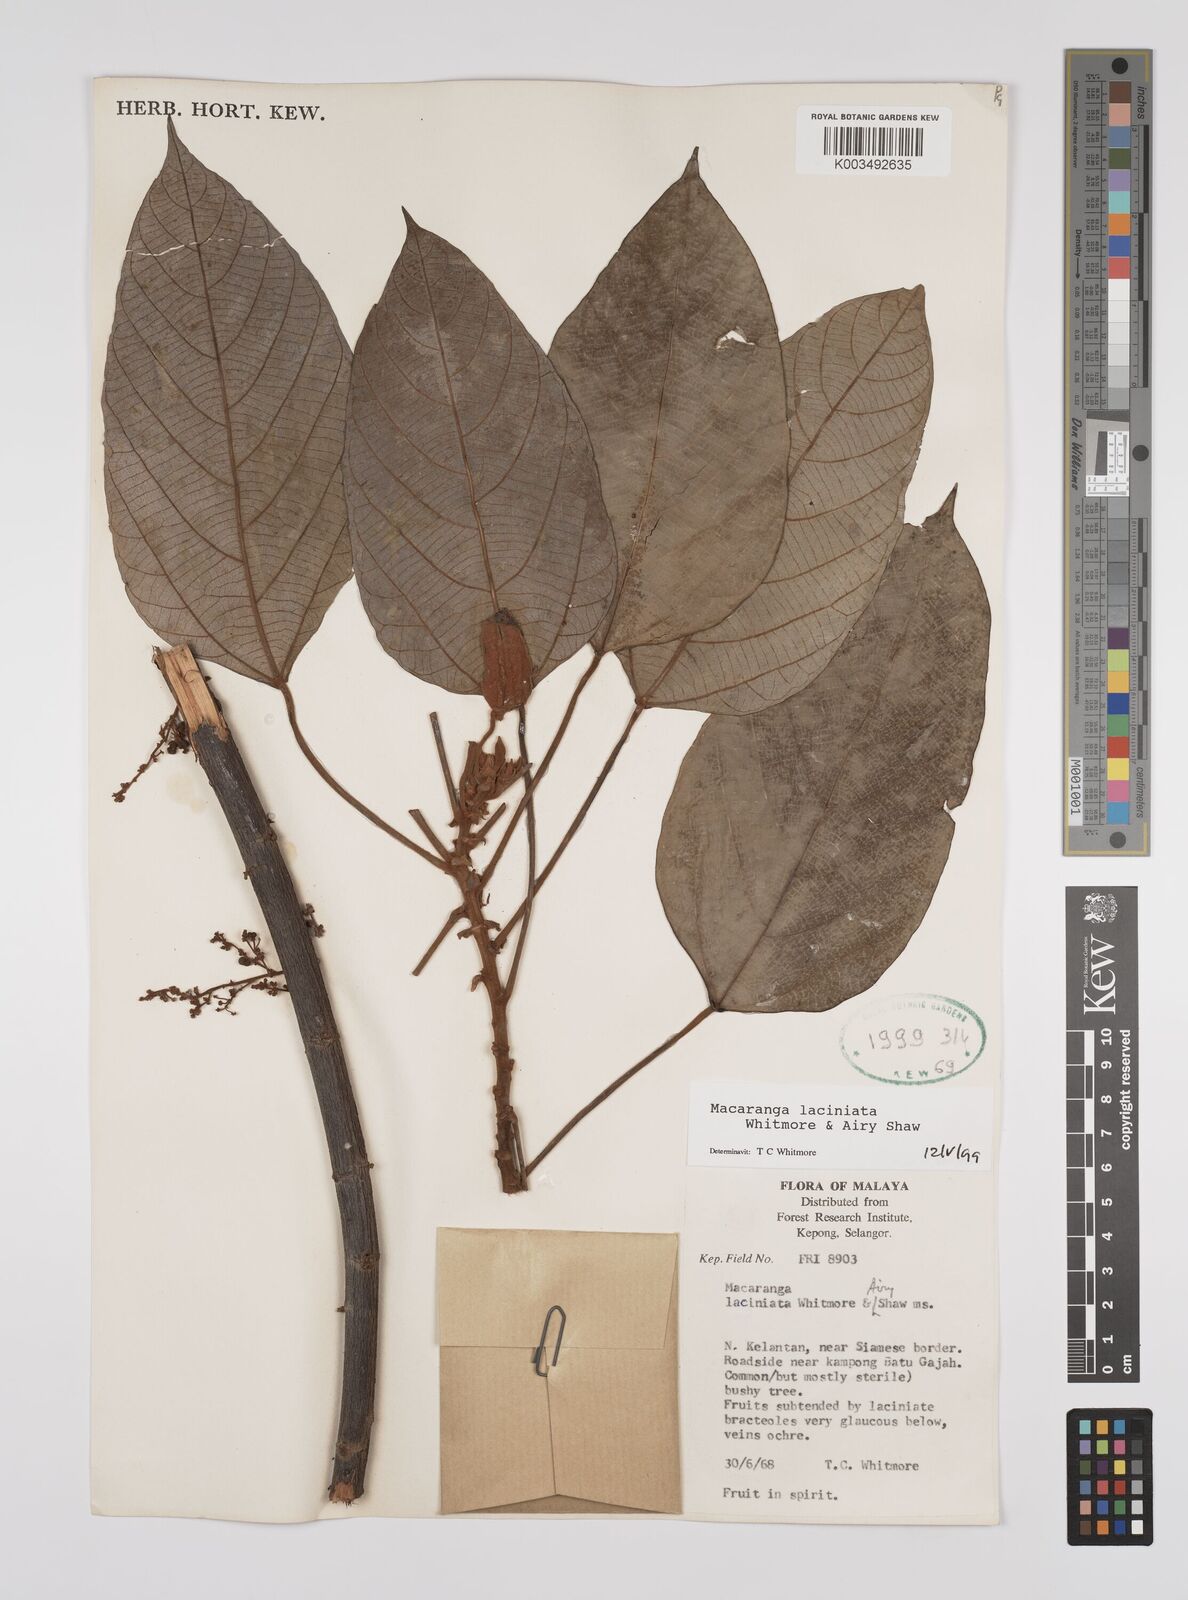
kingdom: Plantae
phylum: Tracheophyta
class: Magnoliopsida
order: Malpighiales
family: Euphorbiaceae
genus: Macaranga
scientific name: Macaranga laciniata
